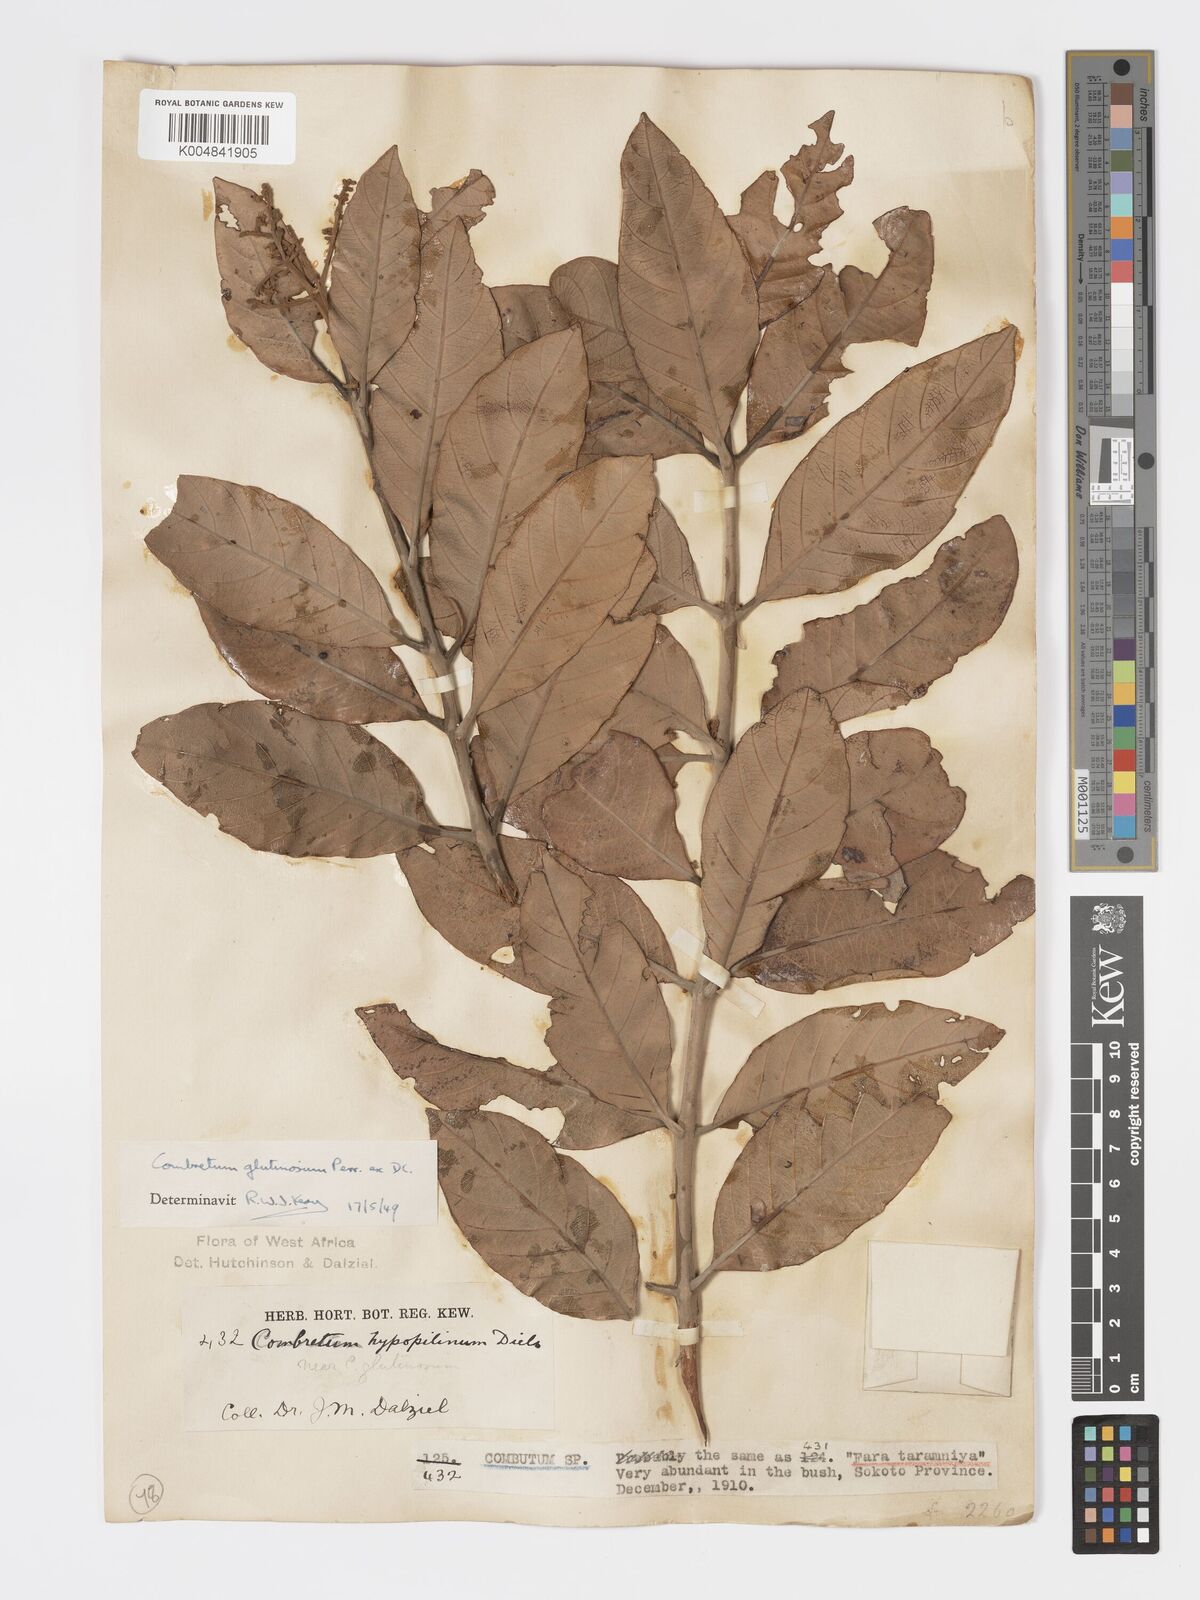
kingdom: Plantae
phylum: Tracheophyta
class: Magnoliopsida
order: Myrtales
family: Combretaceae
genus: Combretum
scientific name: Combretum
